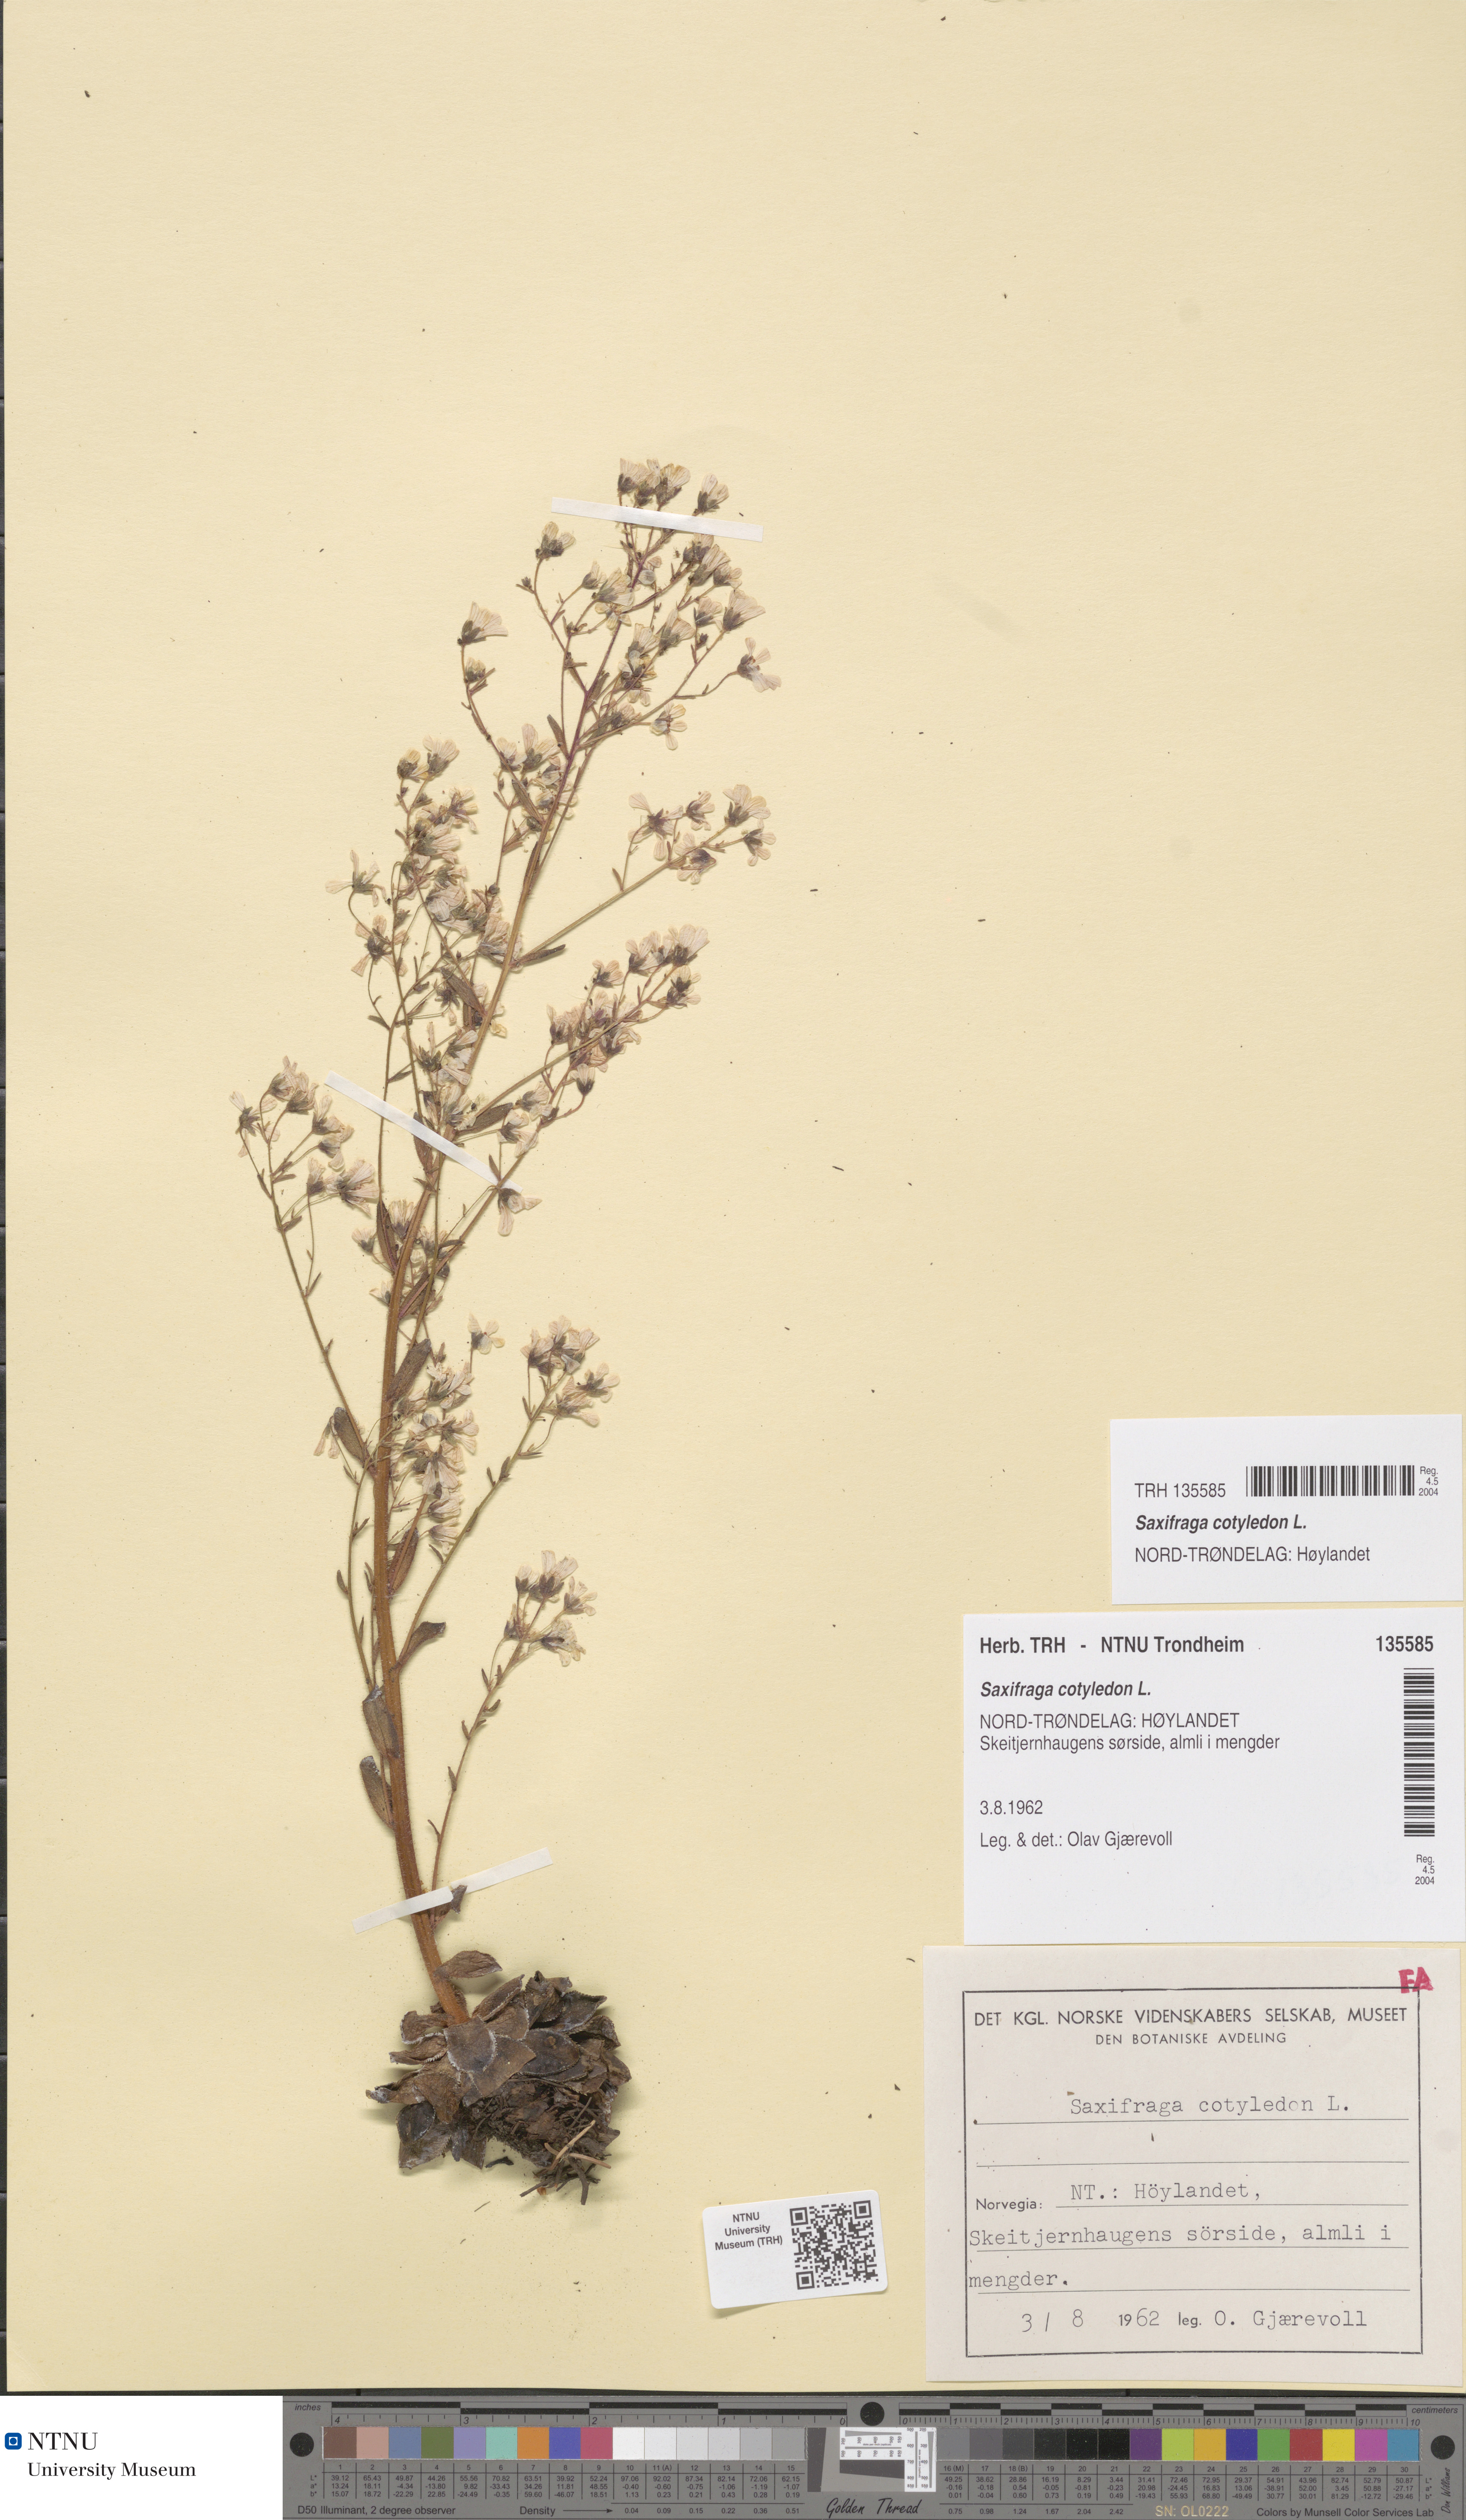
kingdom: Plantae
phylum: Tracheophyta
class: Magnoliopsida
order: Saxifragales
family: Saxifragaceae
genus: Saxifraga
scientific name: Saxifraga cotyledon
